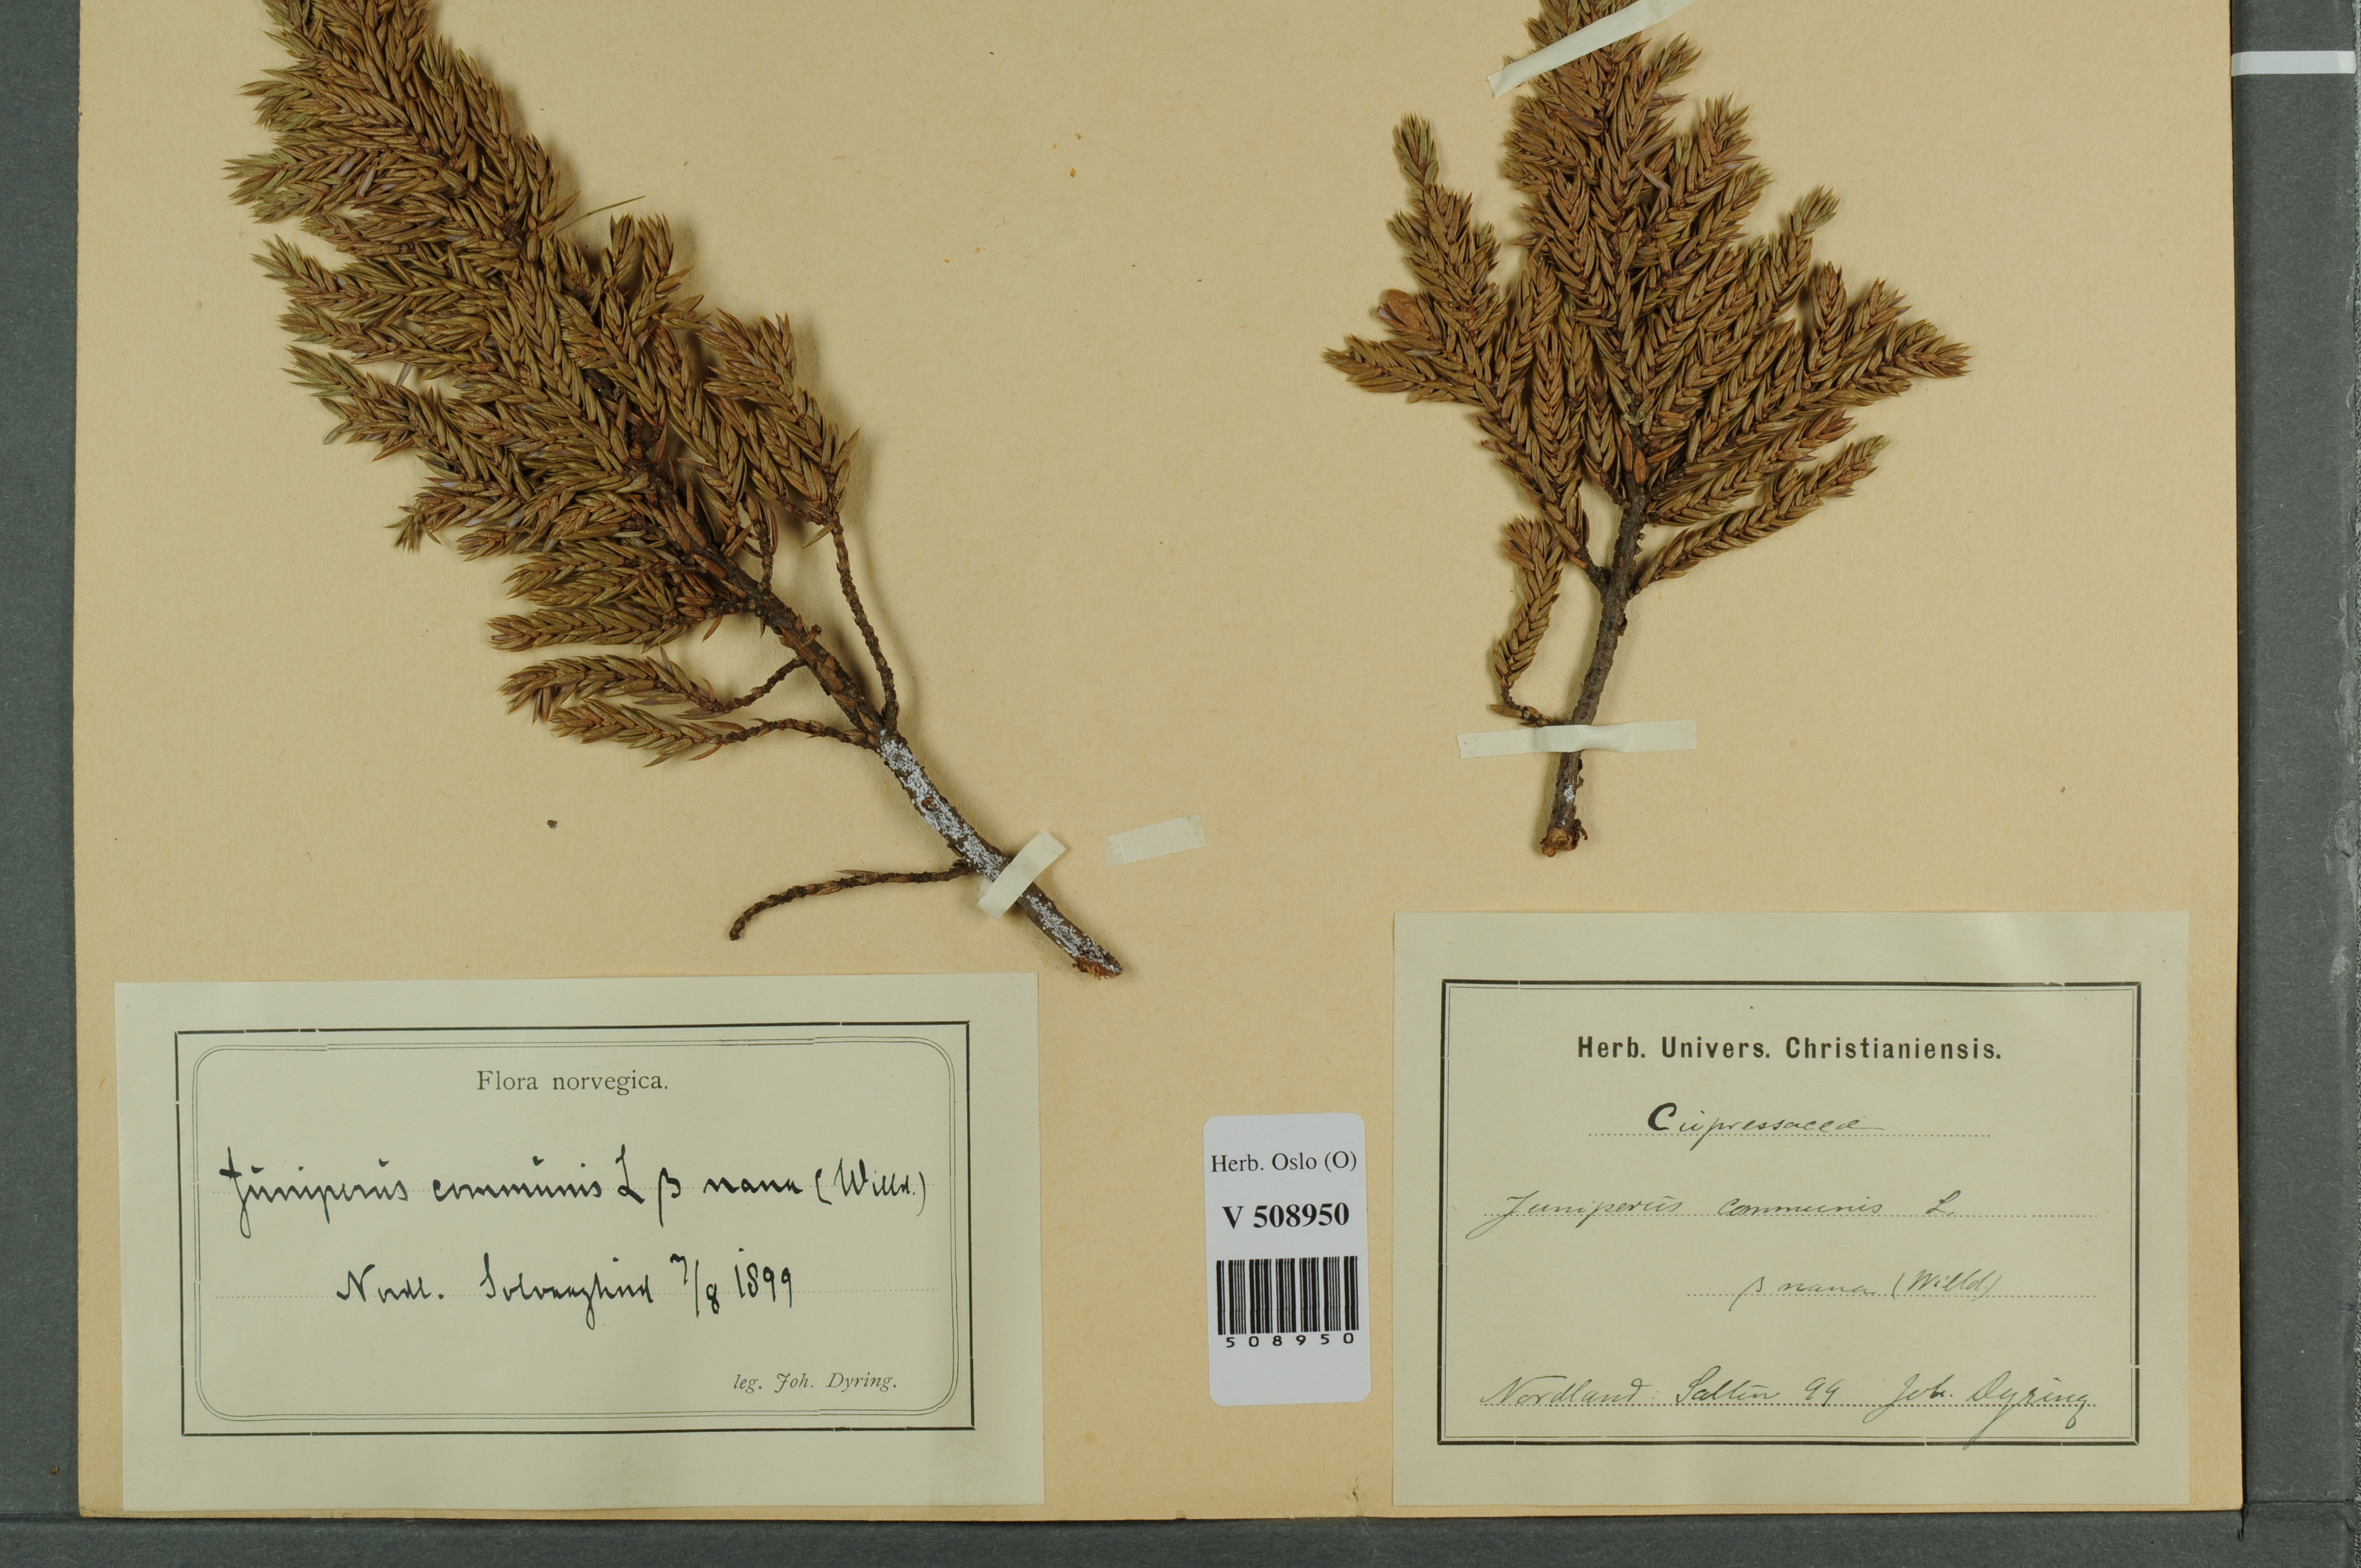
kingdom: Plantae
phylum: Tracheophyta
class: Pinopsida
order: Pinales
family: Cupressaceae
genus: Juniperus
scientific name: Juniperus communis
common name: Common juniper
